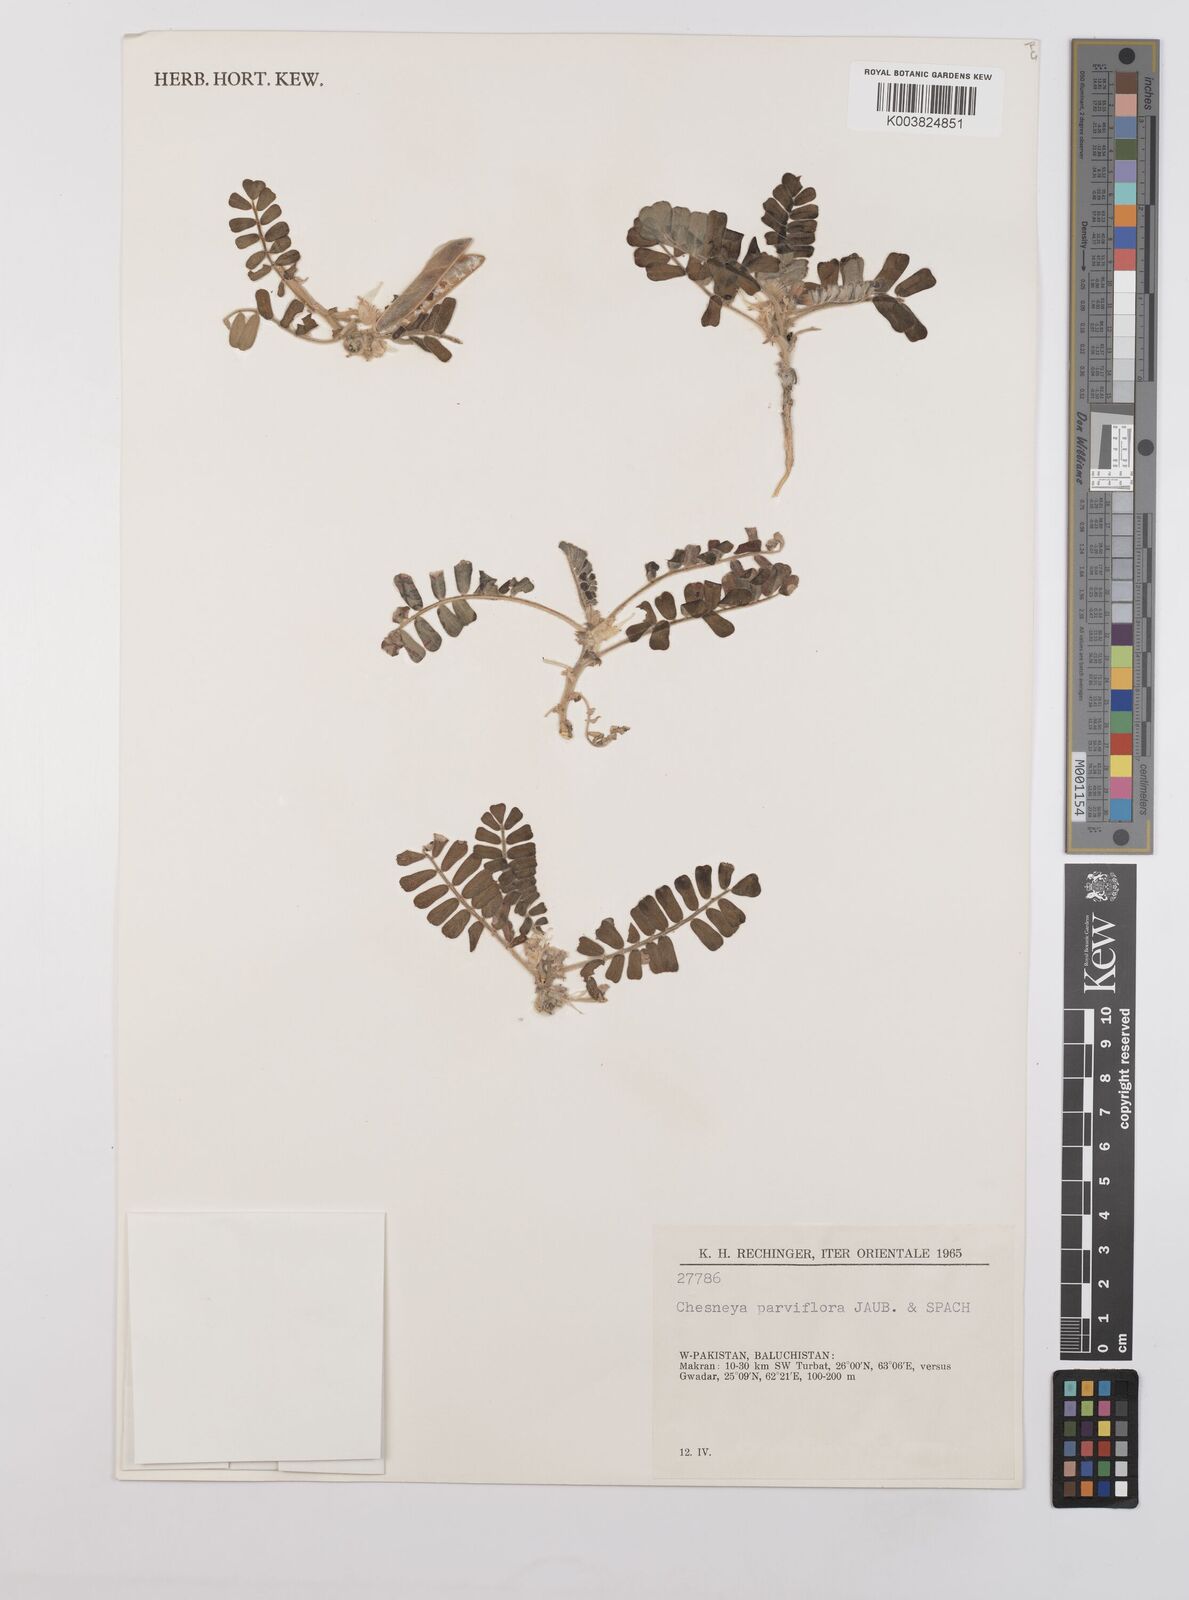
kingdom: Plantae
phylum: Tracheophyta
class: Magnoliopsida
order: Fabales
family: Fabaceae
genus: Chesneya
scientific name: Chesneya parviflora
